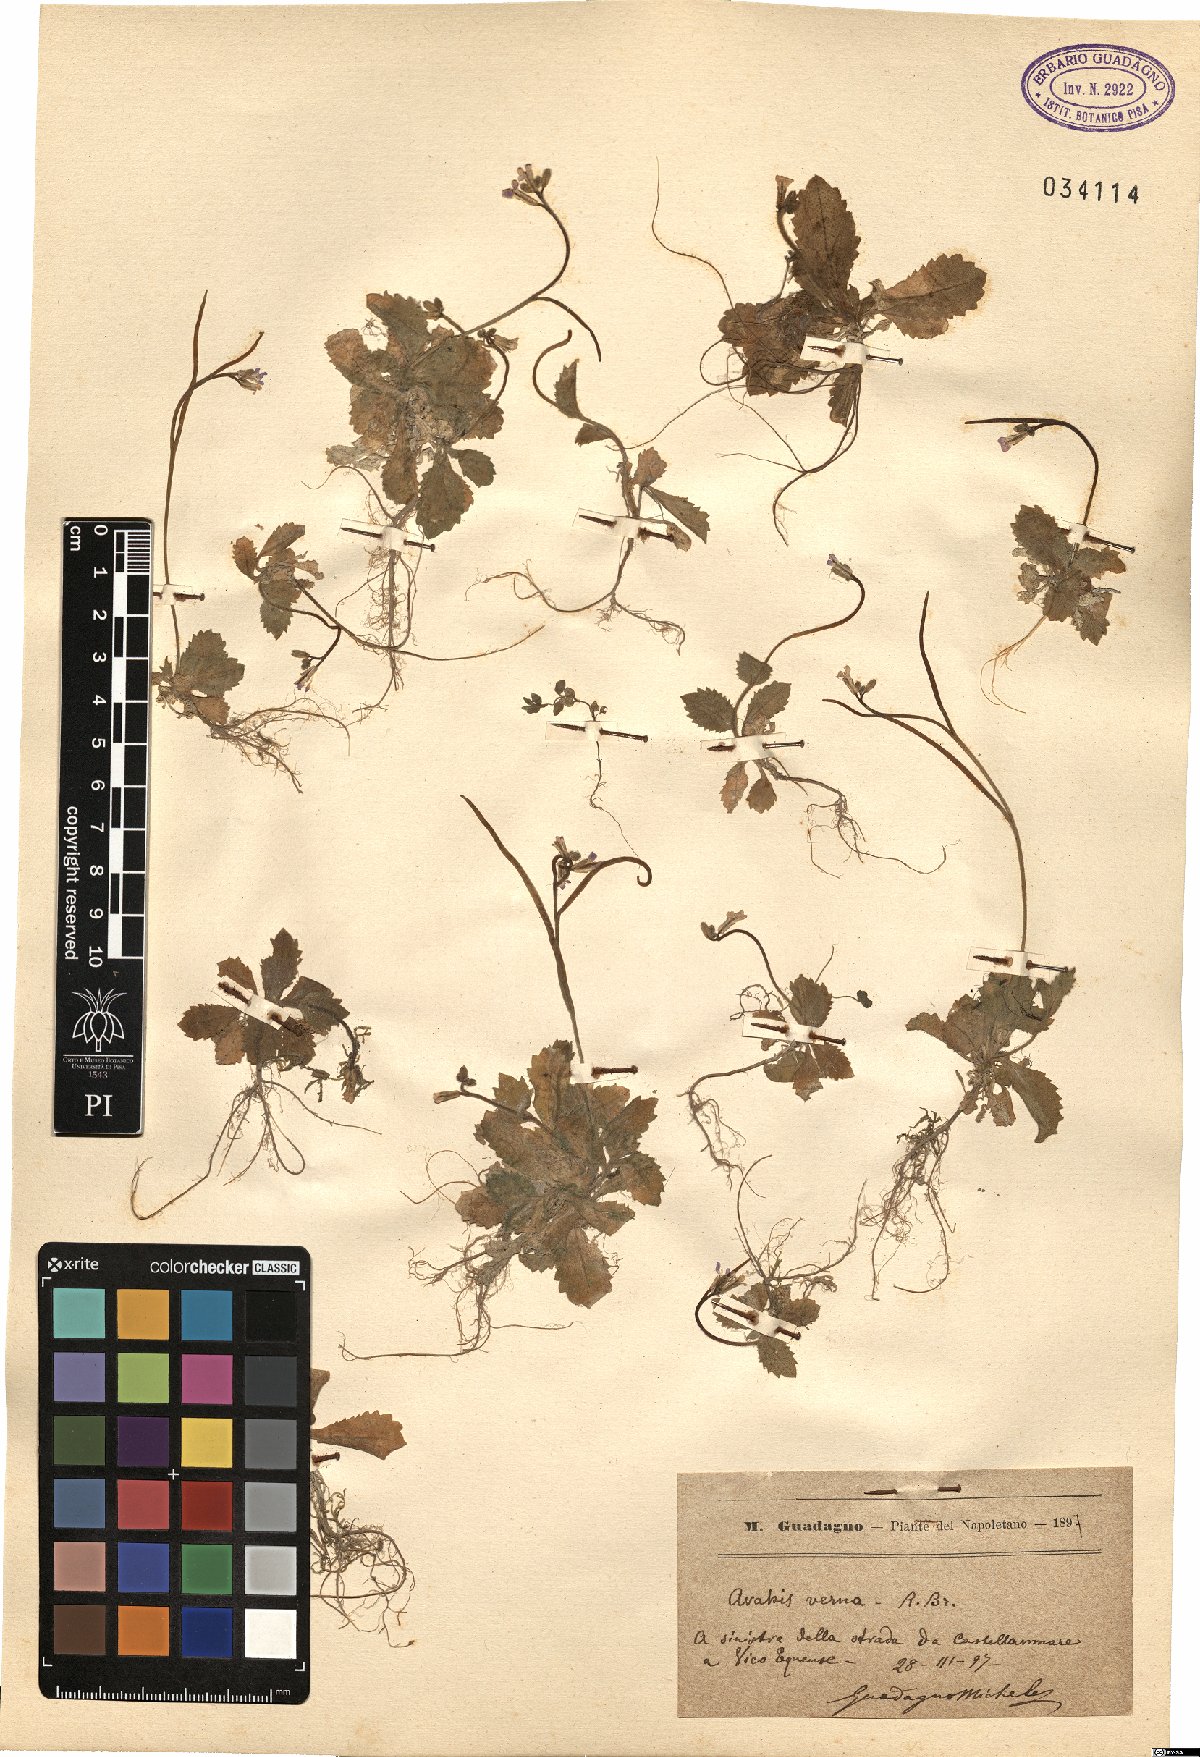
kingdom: Plantae
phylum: Tracheophyta
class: Magnoliopsida
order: Brassicales
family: Brassicaceae
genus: Arabis
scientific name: Arabis verna
